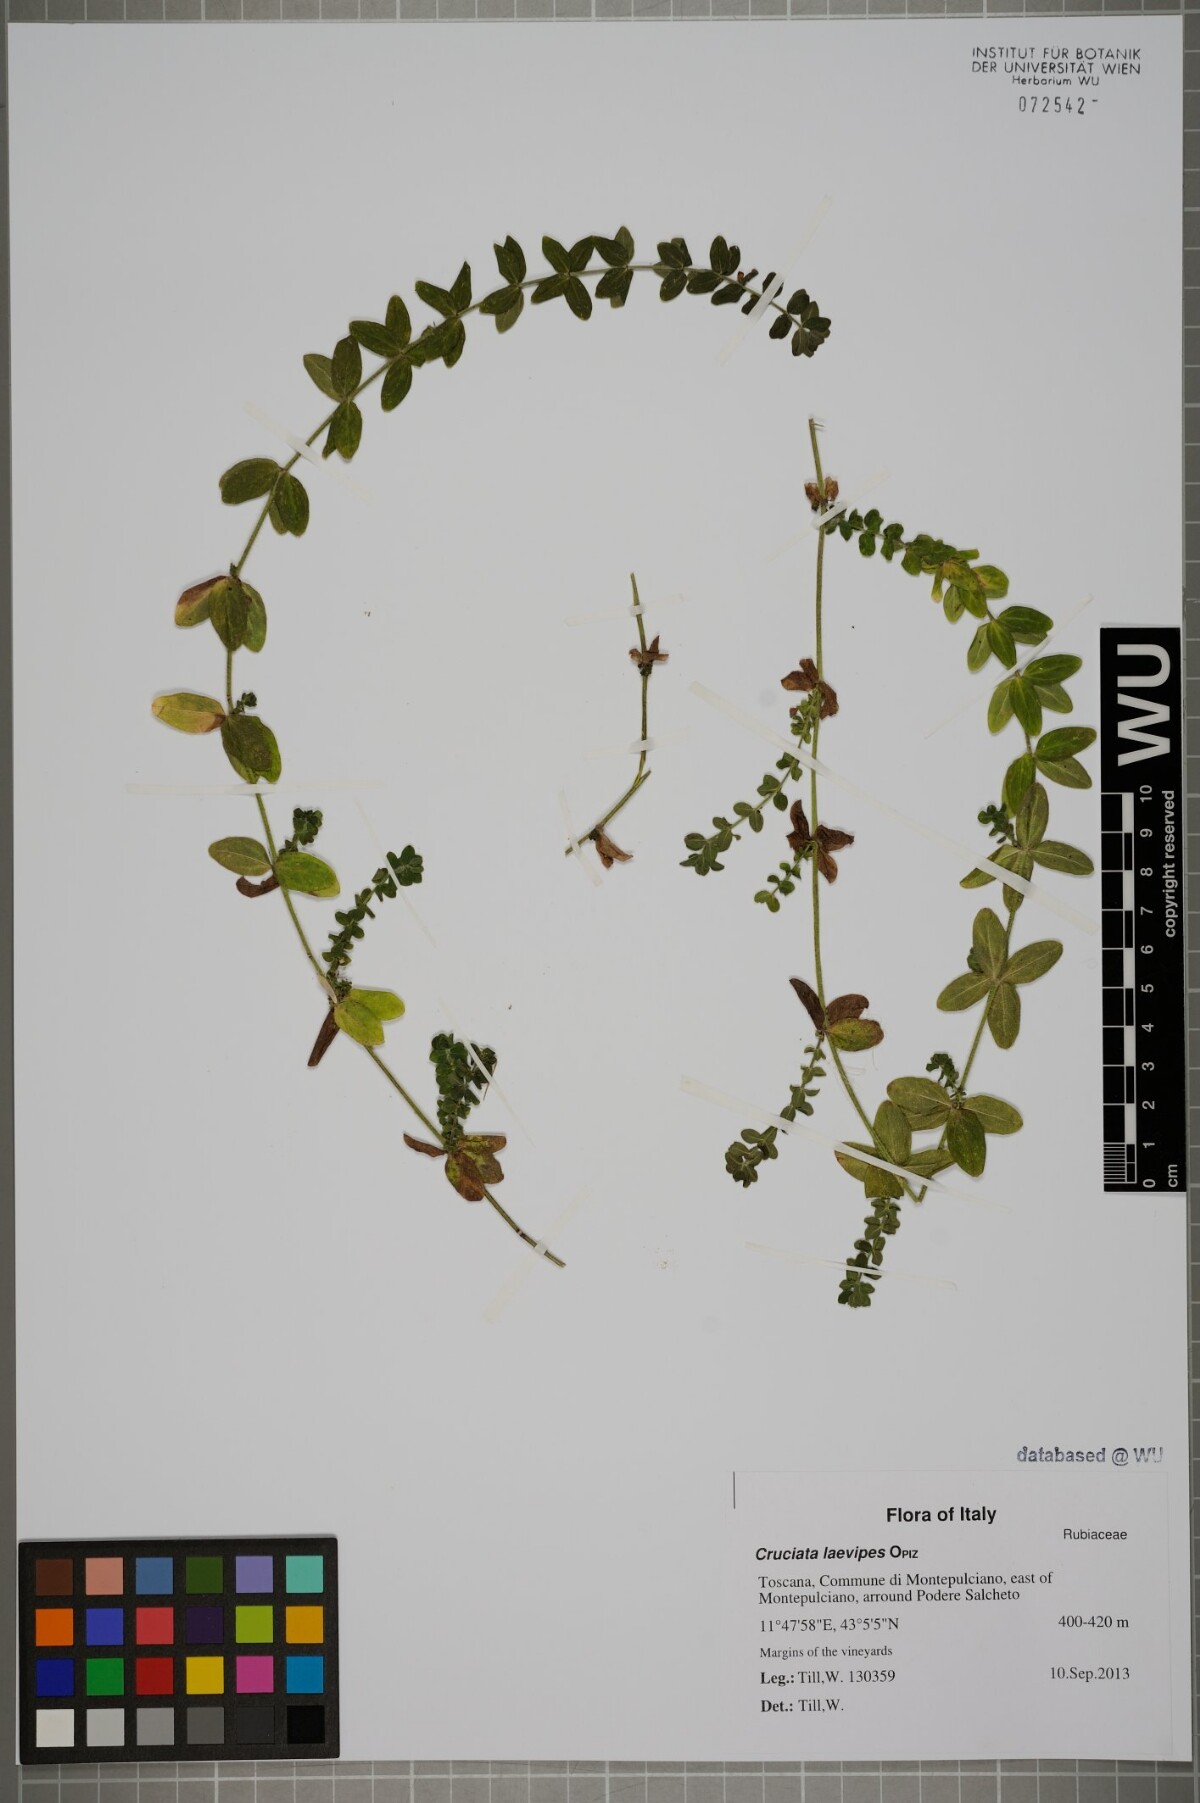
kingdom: Plantae
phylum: Tracheophyta
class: Magnoliopsida
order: Gentianales
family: Rubiaceae
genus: Cruciata
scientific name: Cruciata laevipes
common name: Crosswort
